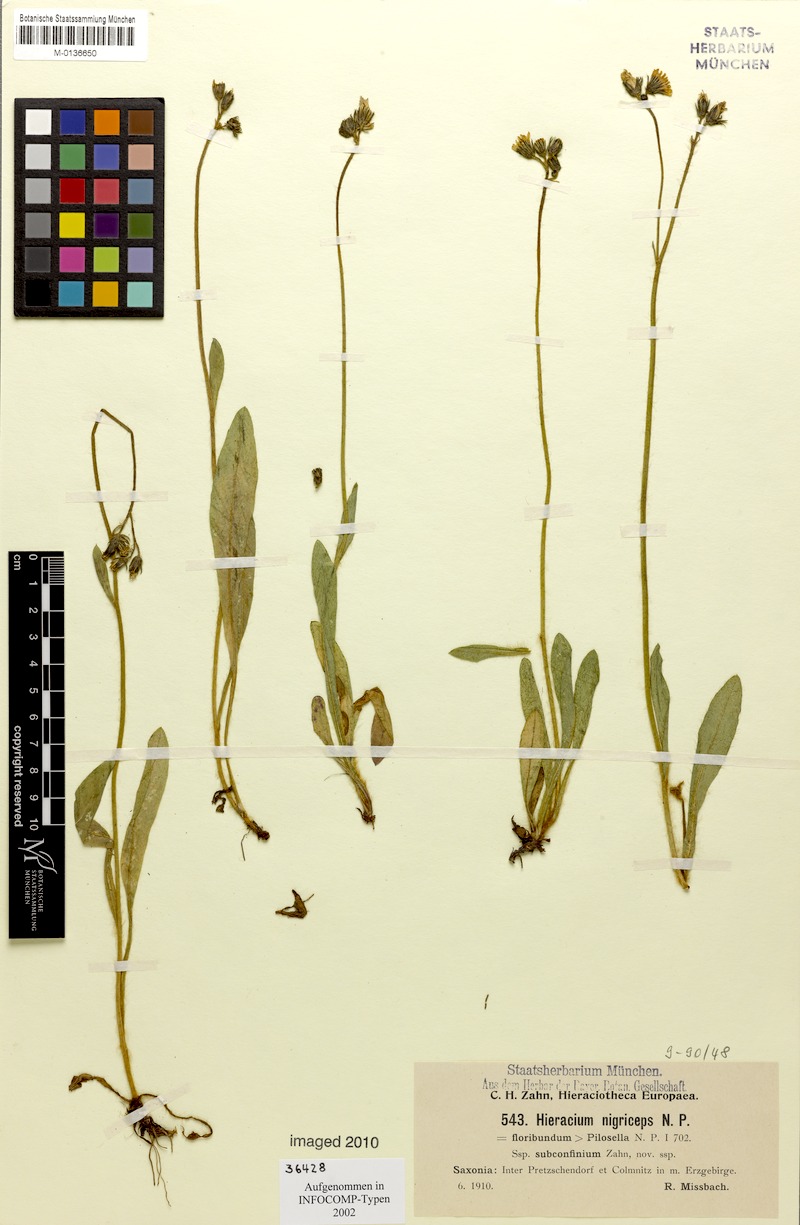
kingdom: Plantae
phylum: Tracheophyta
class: Magnoliopsida
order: Asterales
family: Asteraceae
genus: Pilosella
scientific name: Pilosella iserana
